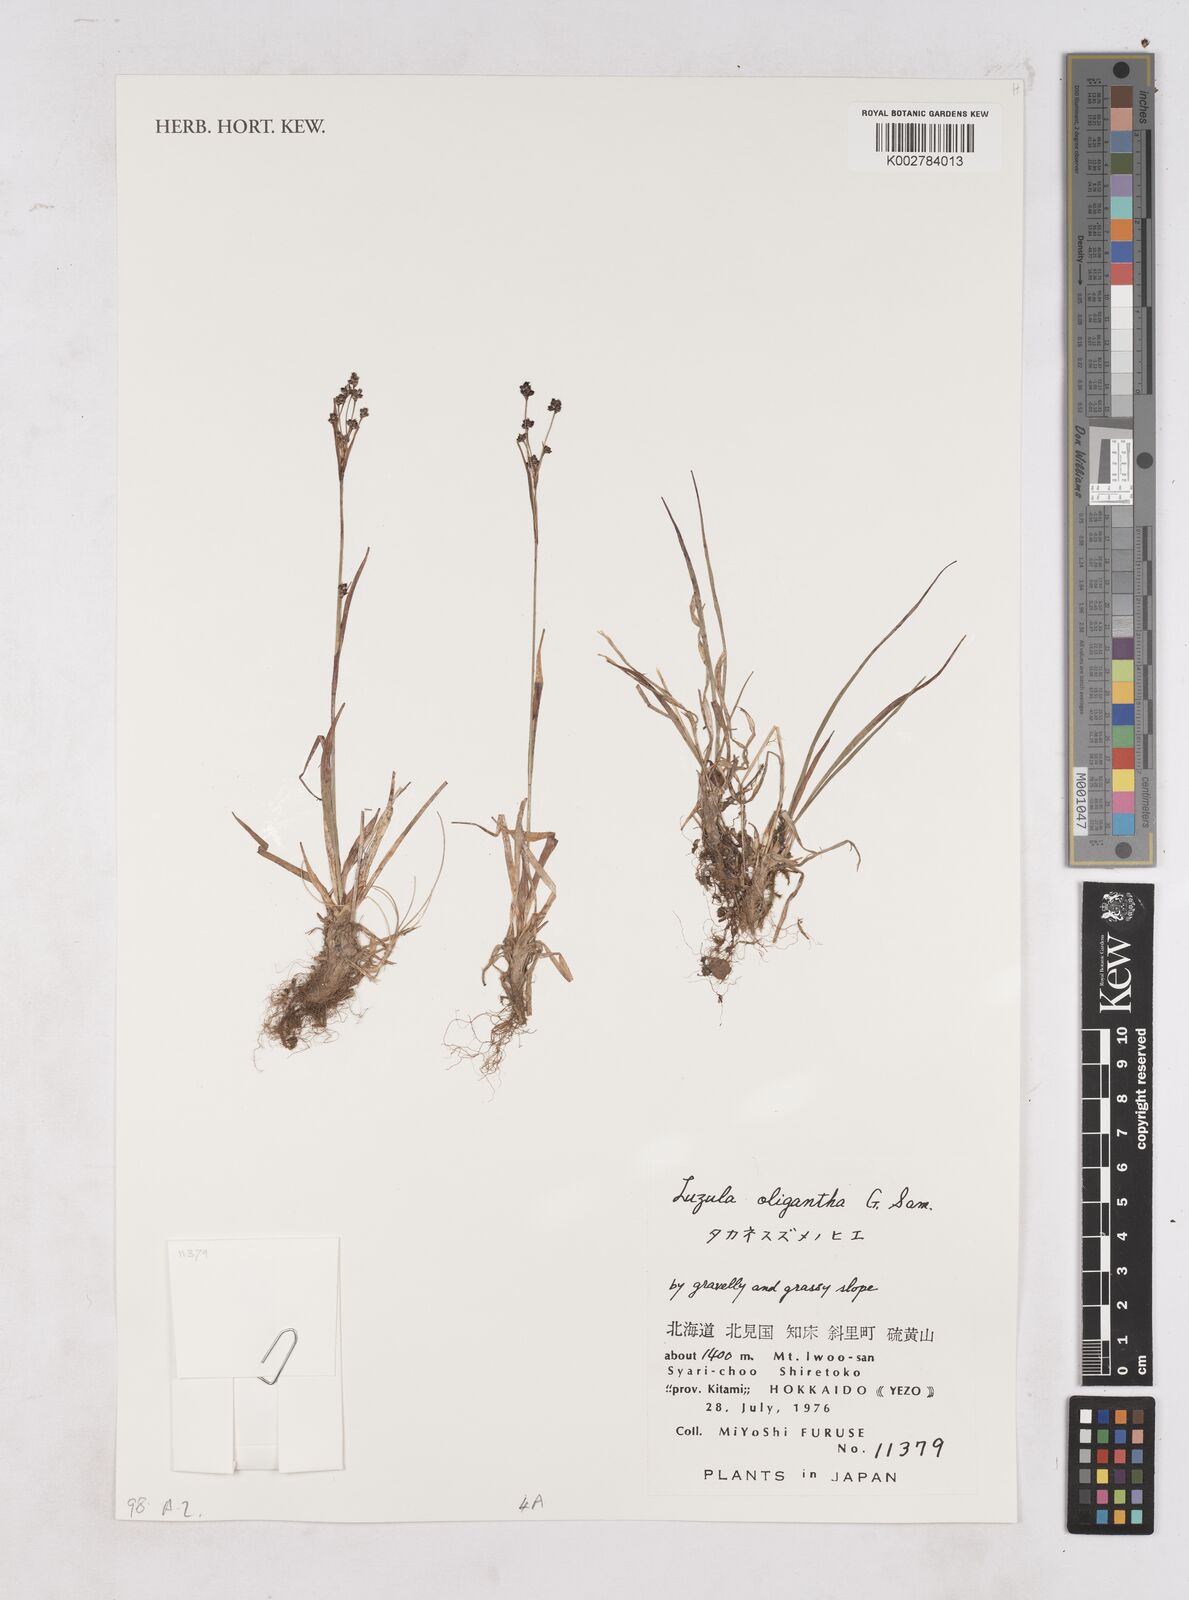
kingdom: Plantae
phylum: Tracheophyta
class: Liliopsida
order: Poales
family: Juncaceae
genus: Luzula
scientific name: Luzula oligantha
